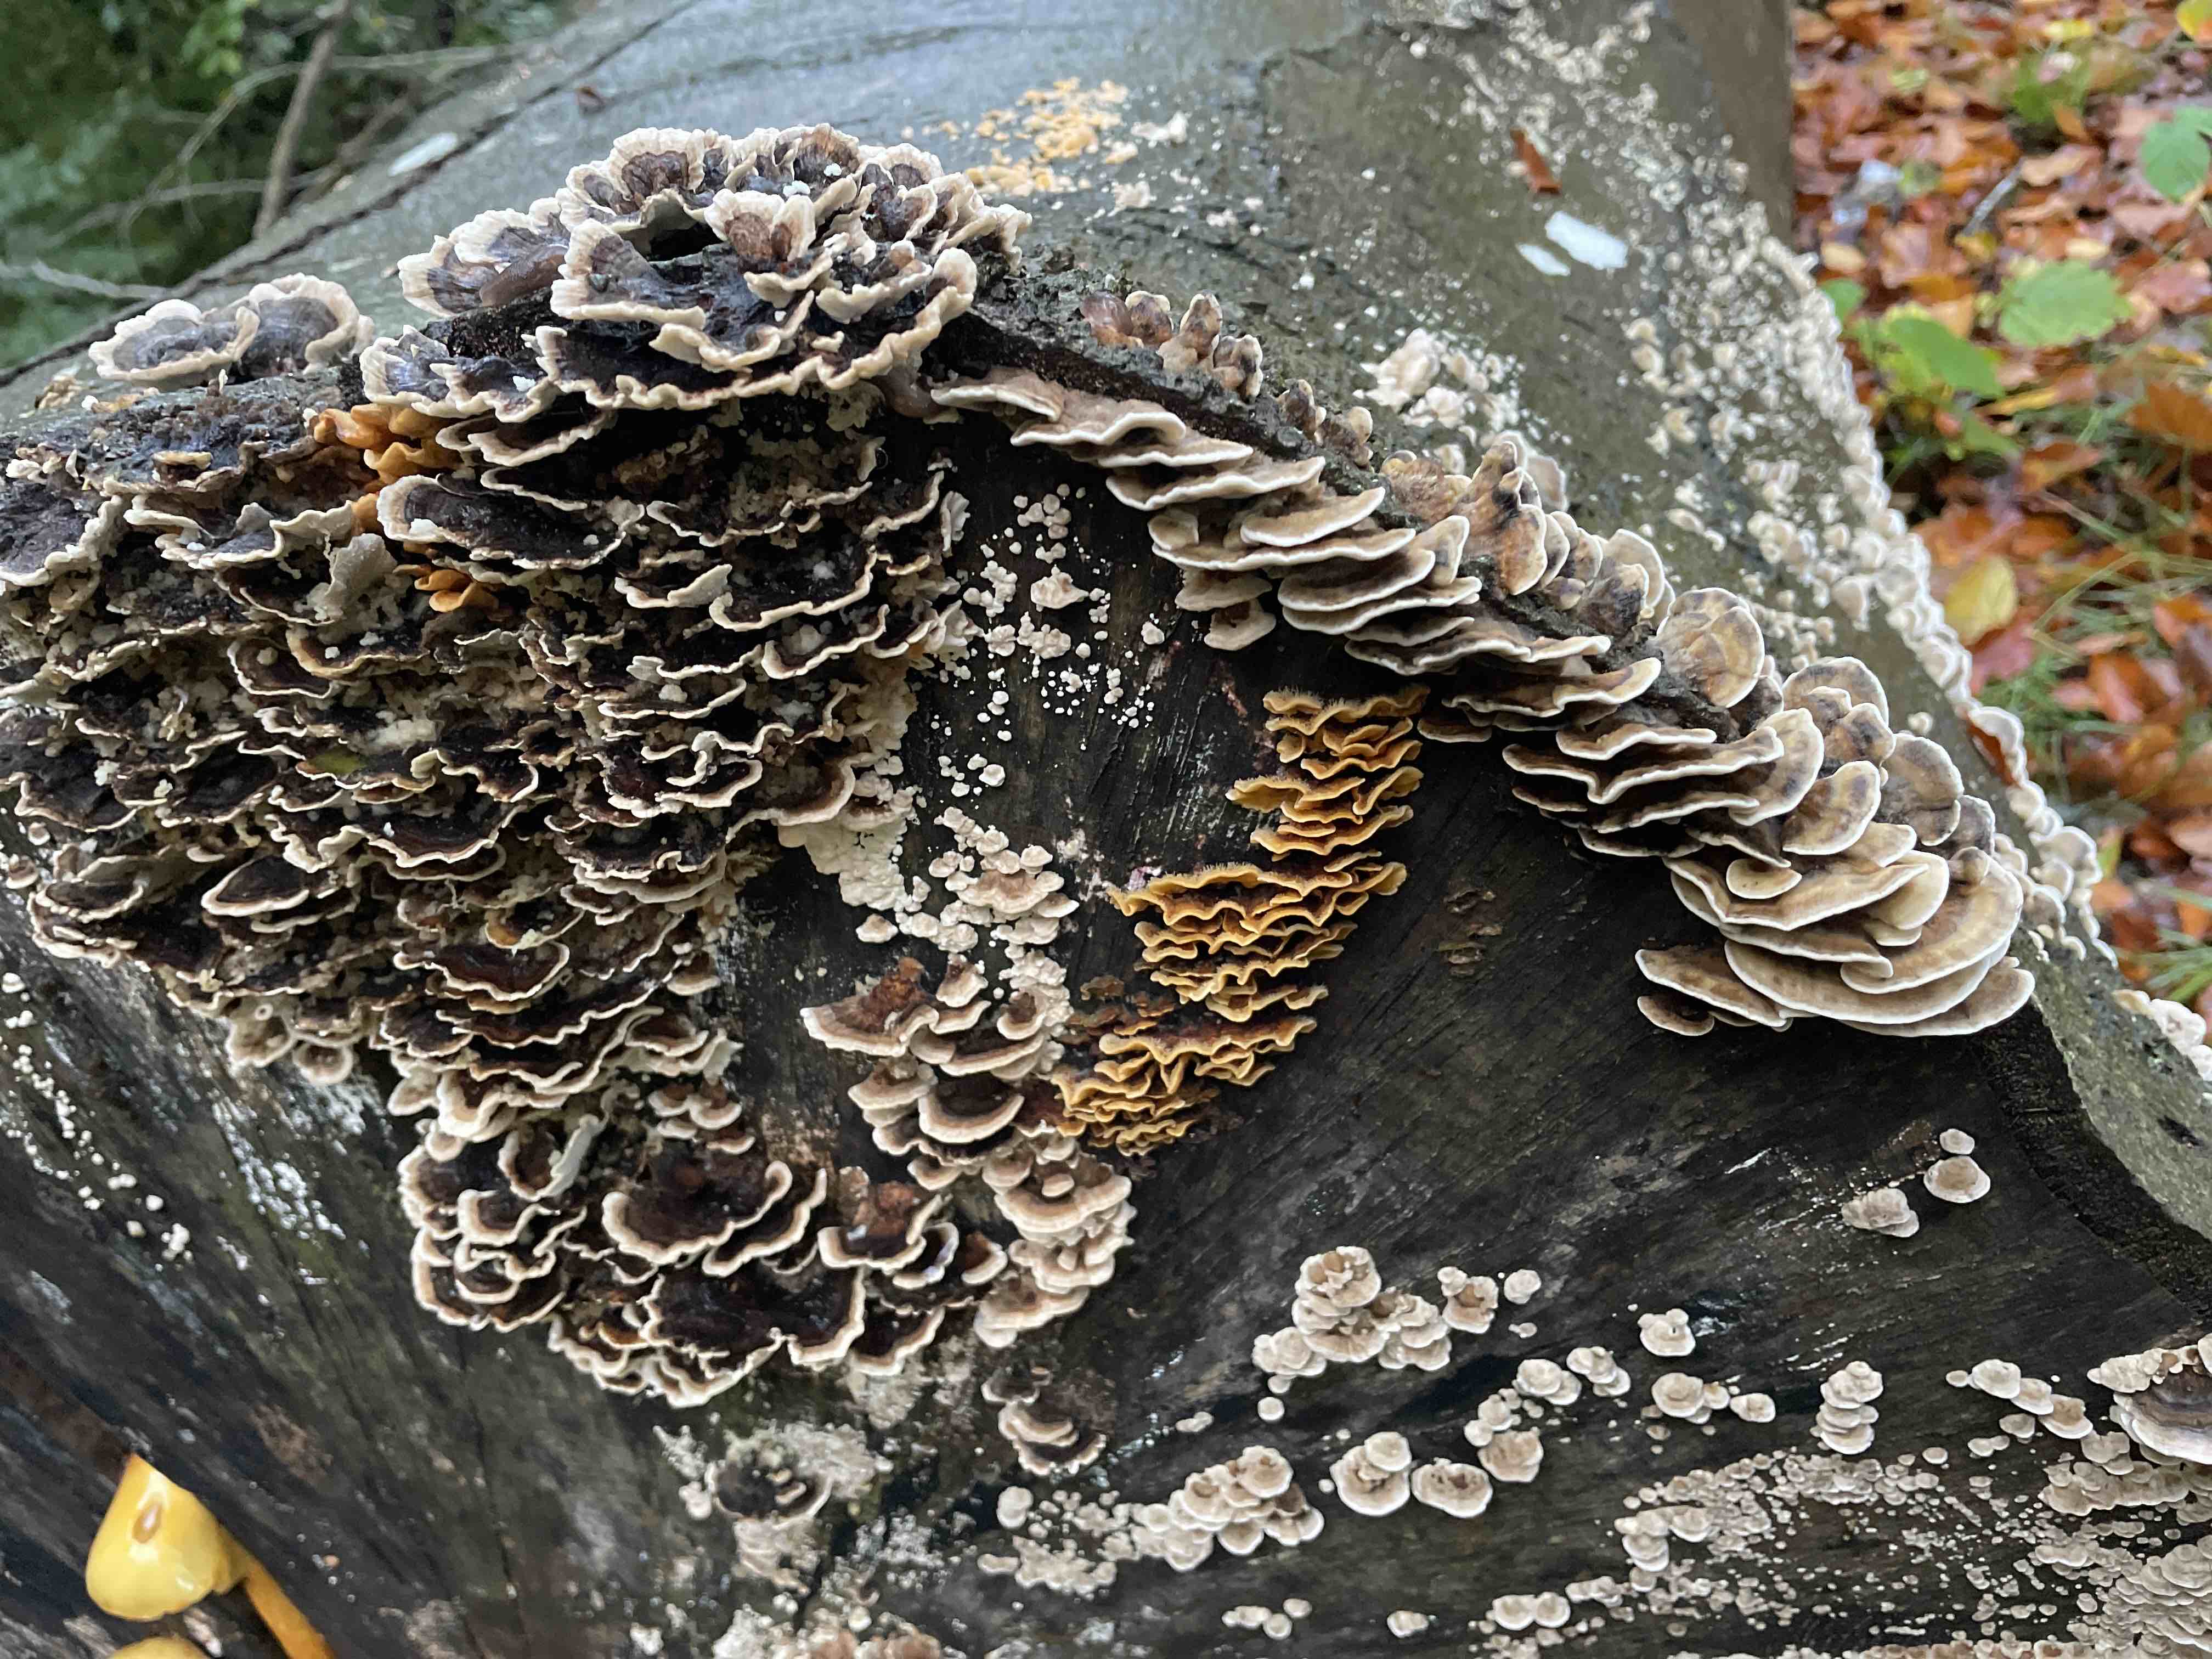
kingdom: Fungi
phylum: Basidiomycota
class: Agaricomycetes
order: Polyporales
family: Polyporaceae
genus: Trametes
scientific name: Trametes versicolor
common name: broget læderporesvamp
